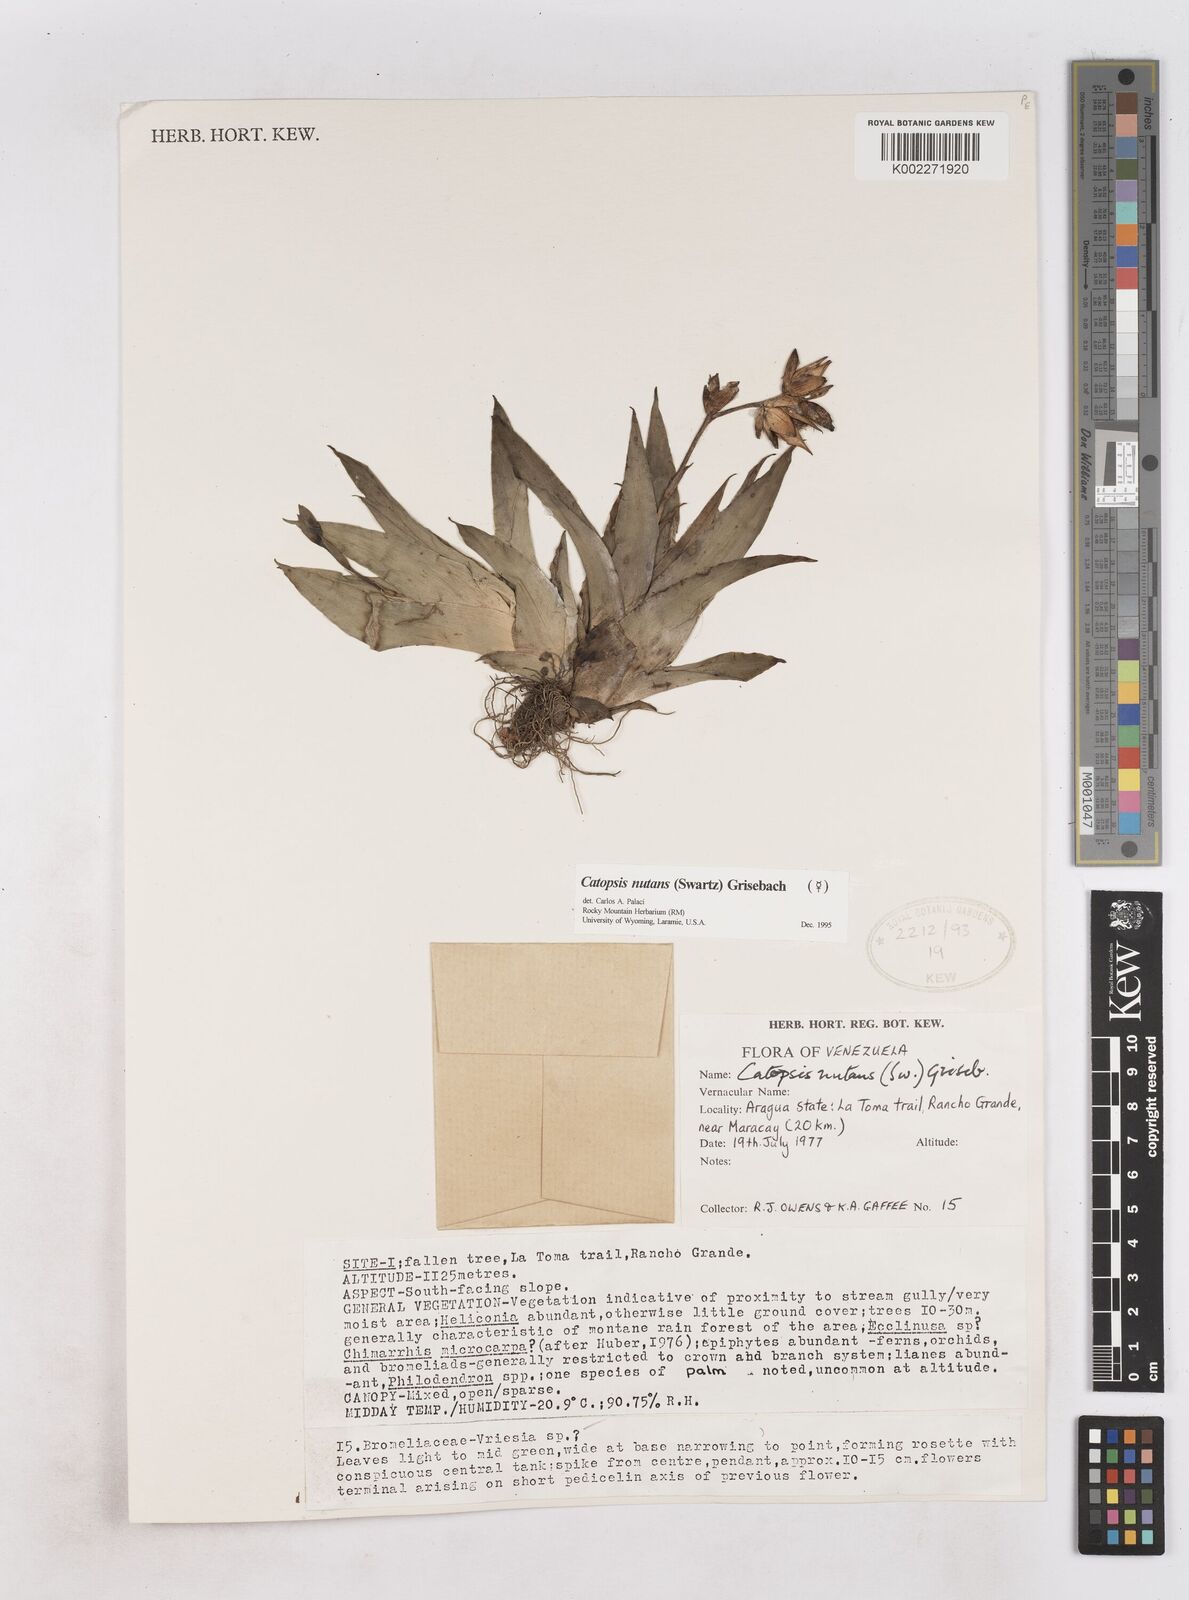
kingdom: Plantae
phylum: Tracheophyta
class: Liliopsida
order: Poales
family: Bromeliaceae
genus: Catopsis
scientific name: Catopsis nutans
